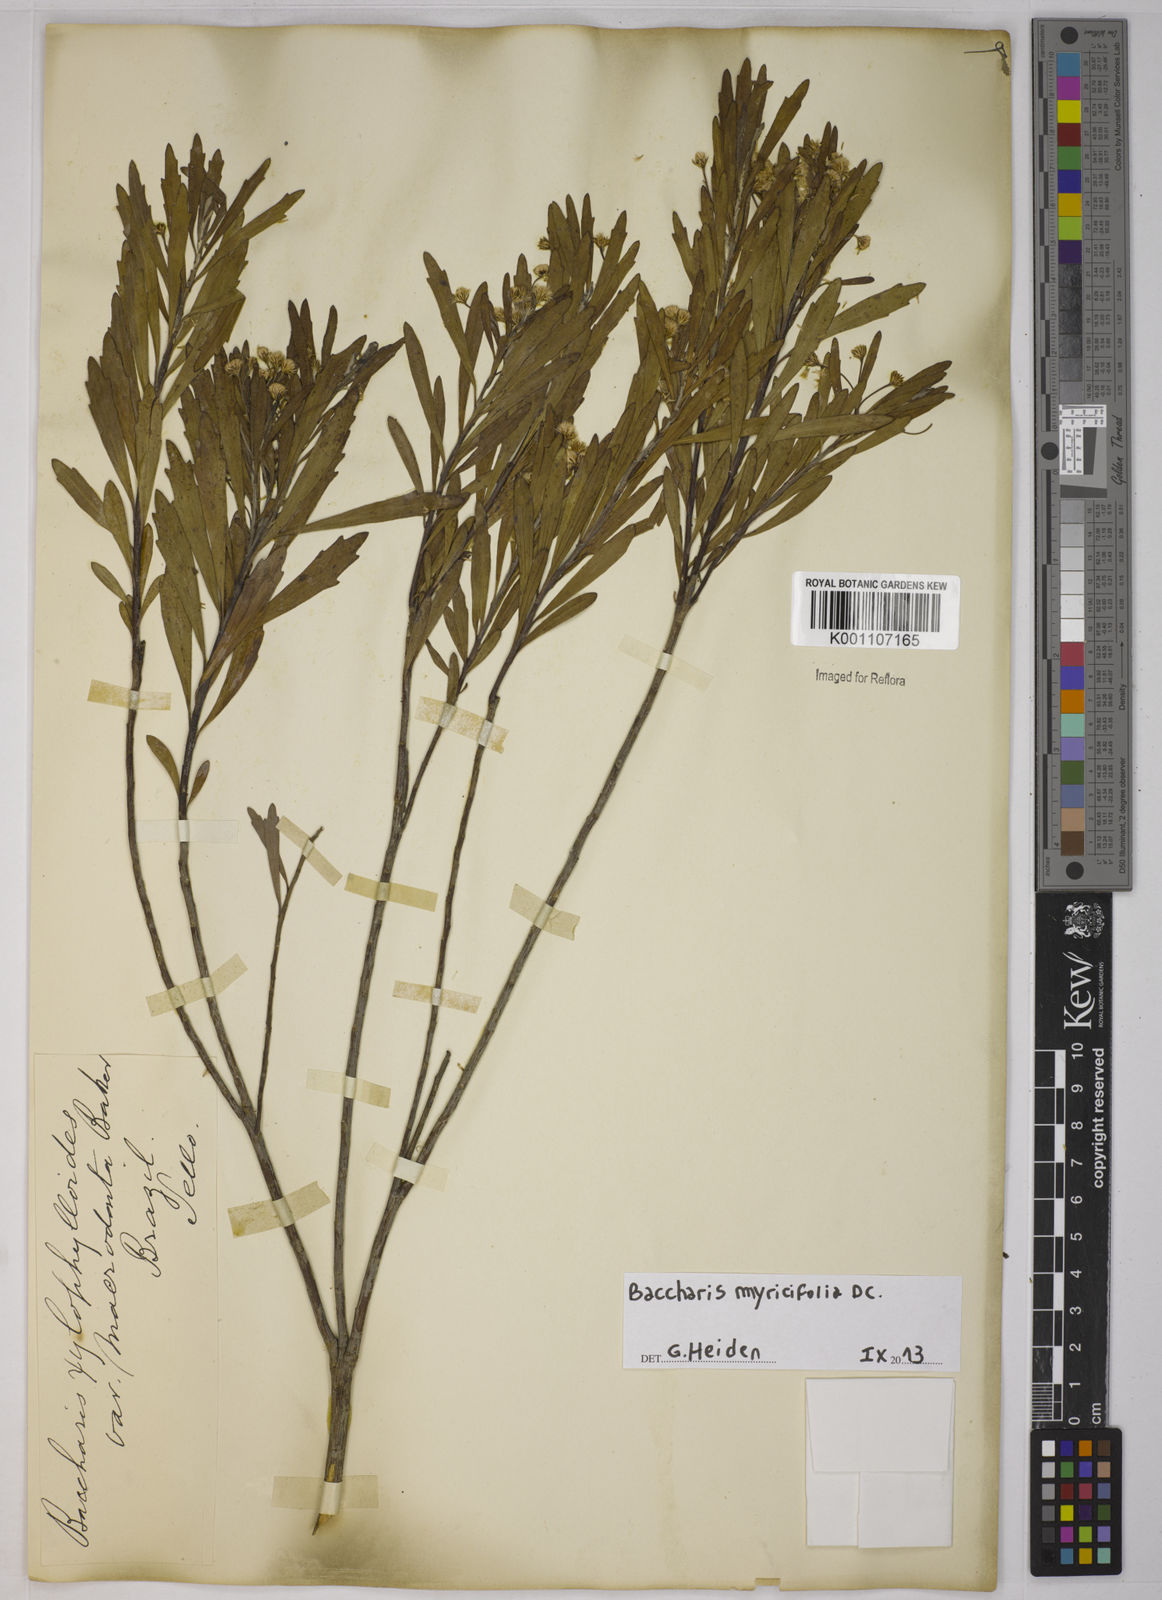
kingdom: Plantae
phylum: Tracheophyta
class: Magnoliopsida
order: Asterales
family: Asteraceae
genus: Baccharis
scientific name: Baccharis myricifolia
